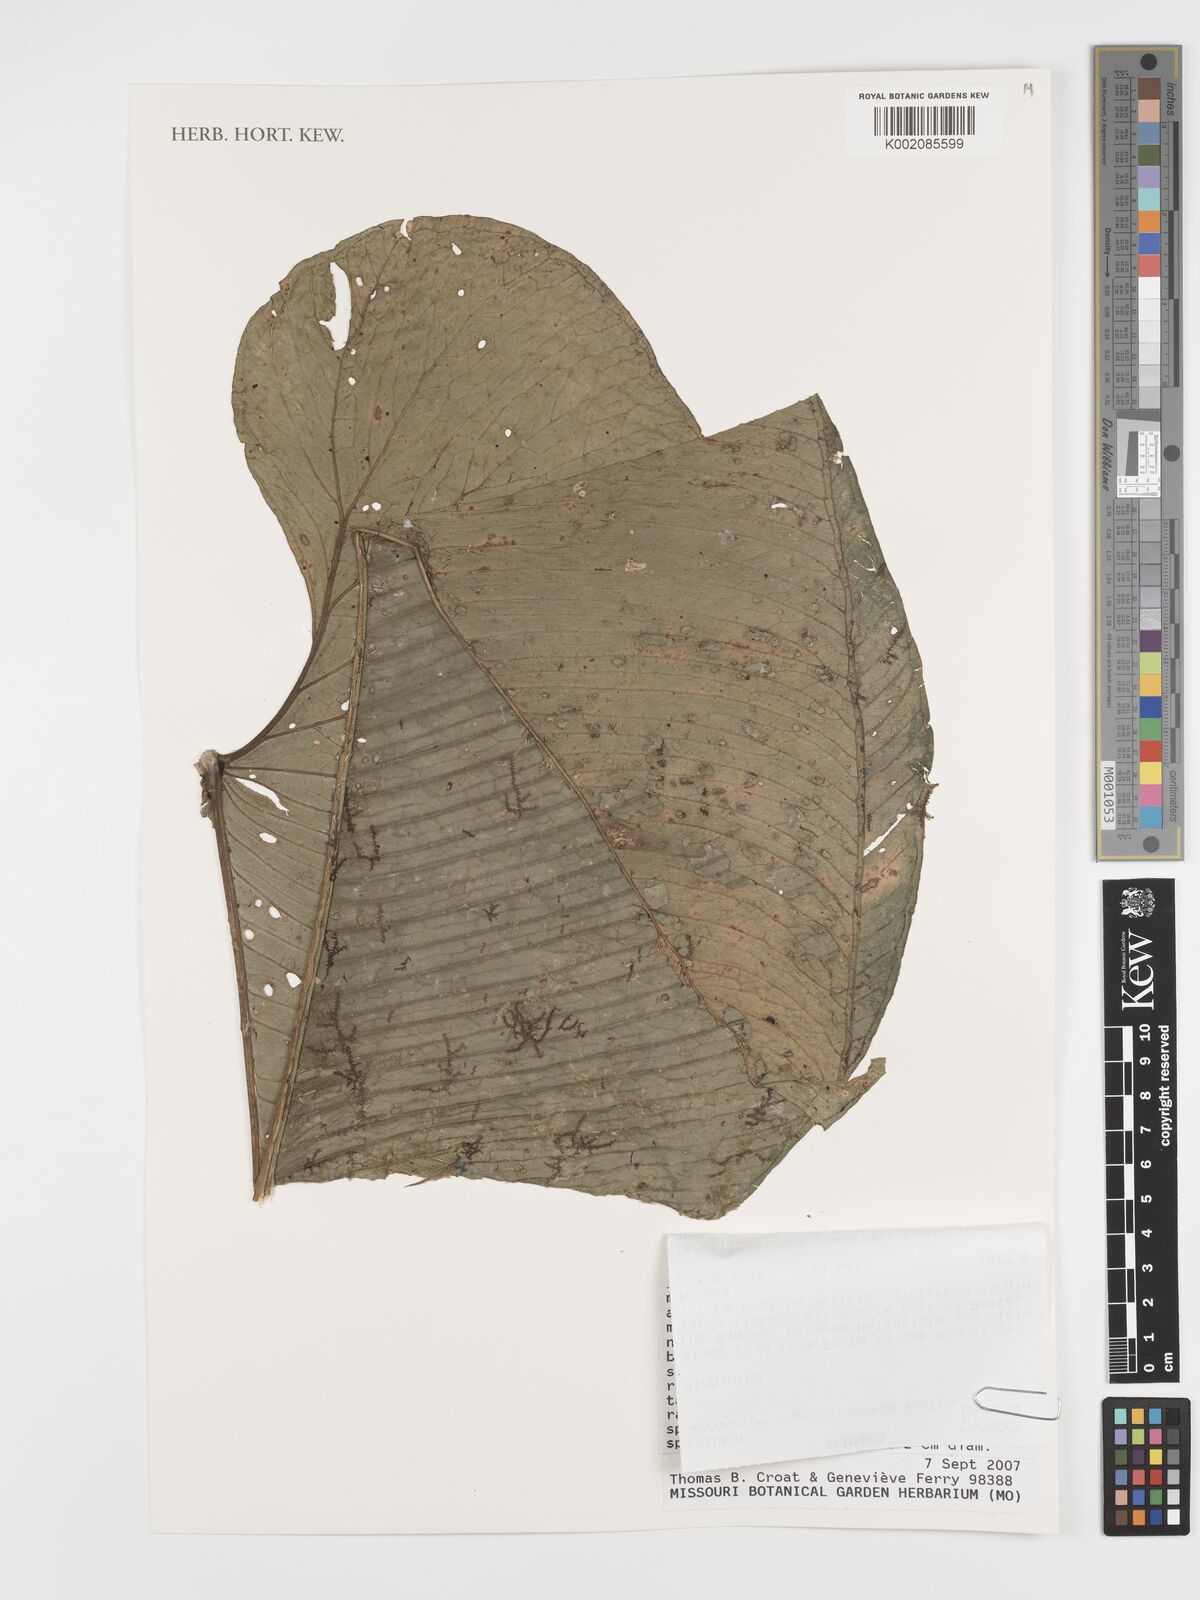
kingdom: Plantae
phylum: Tracheophyta
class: Liliopsida
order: Alismatales
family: Araceae
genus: Anthurium
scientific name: Anthurium argyrostachyum
